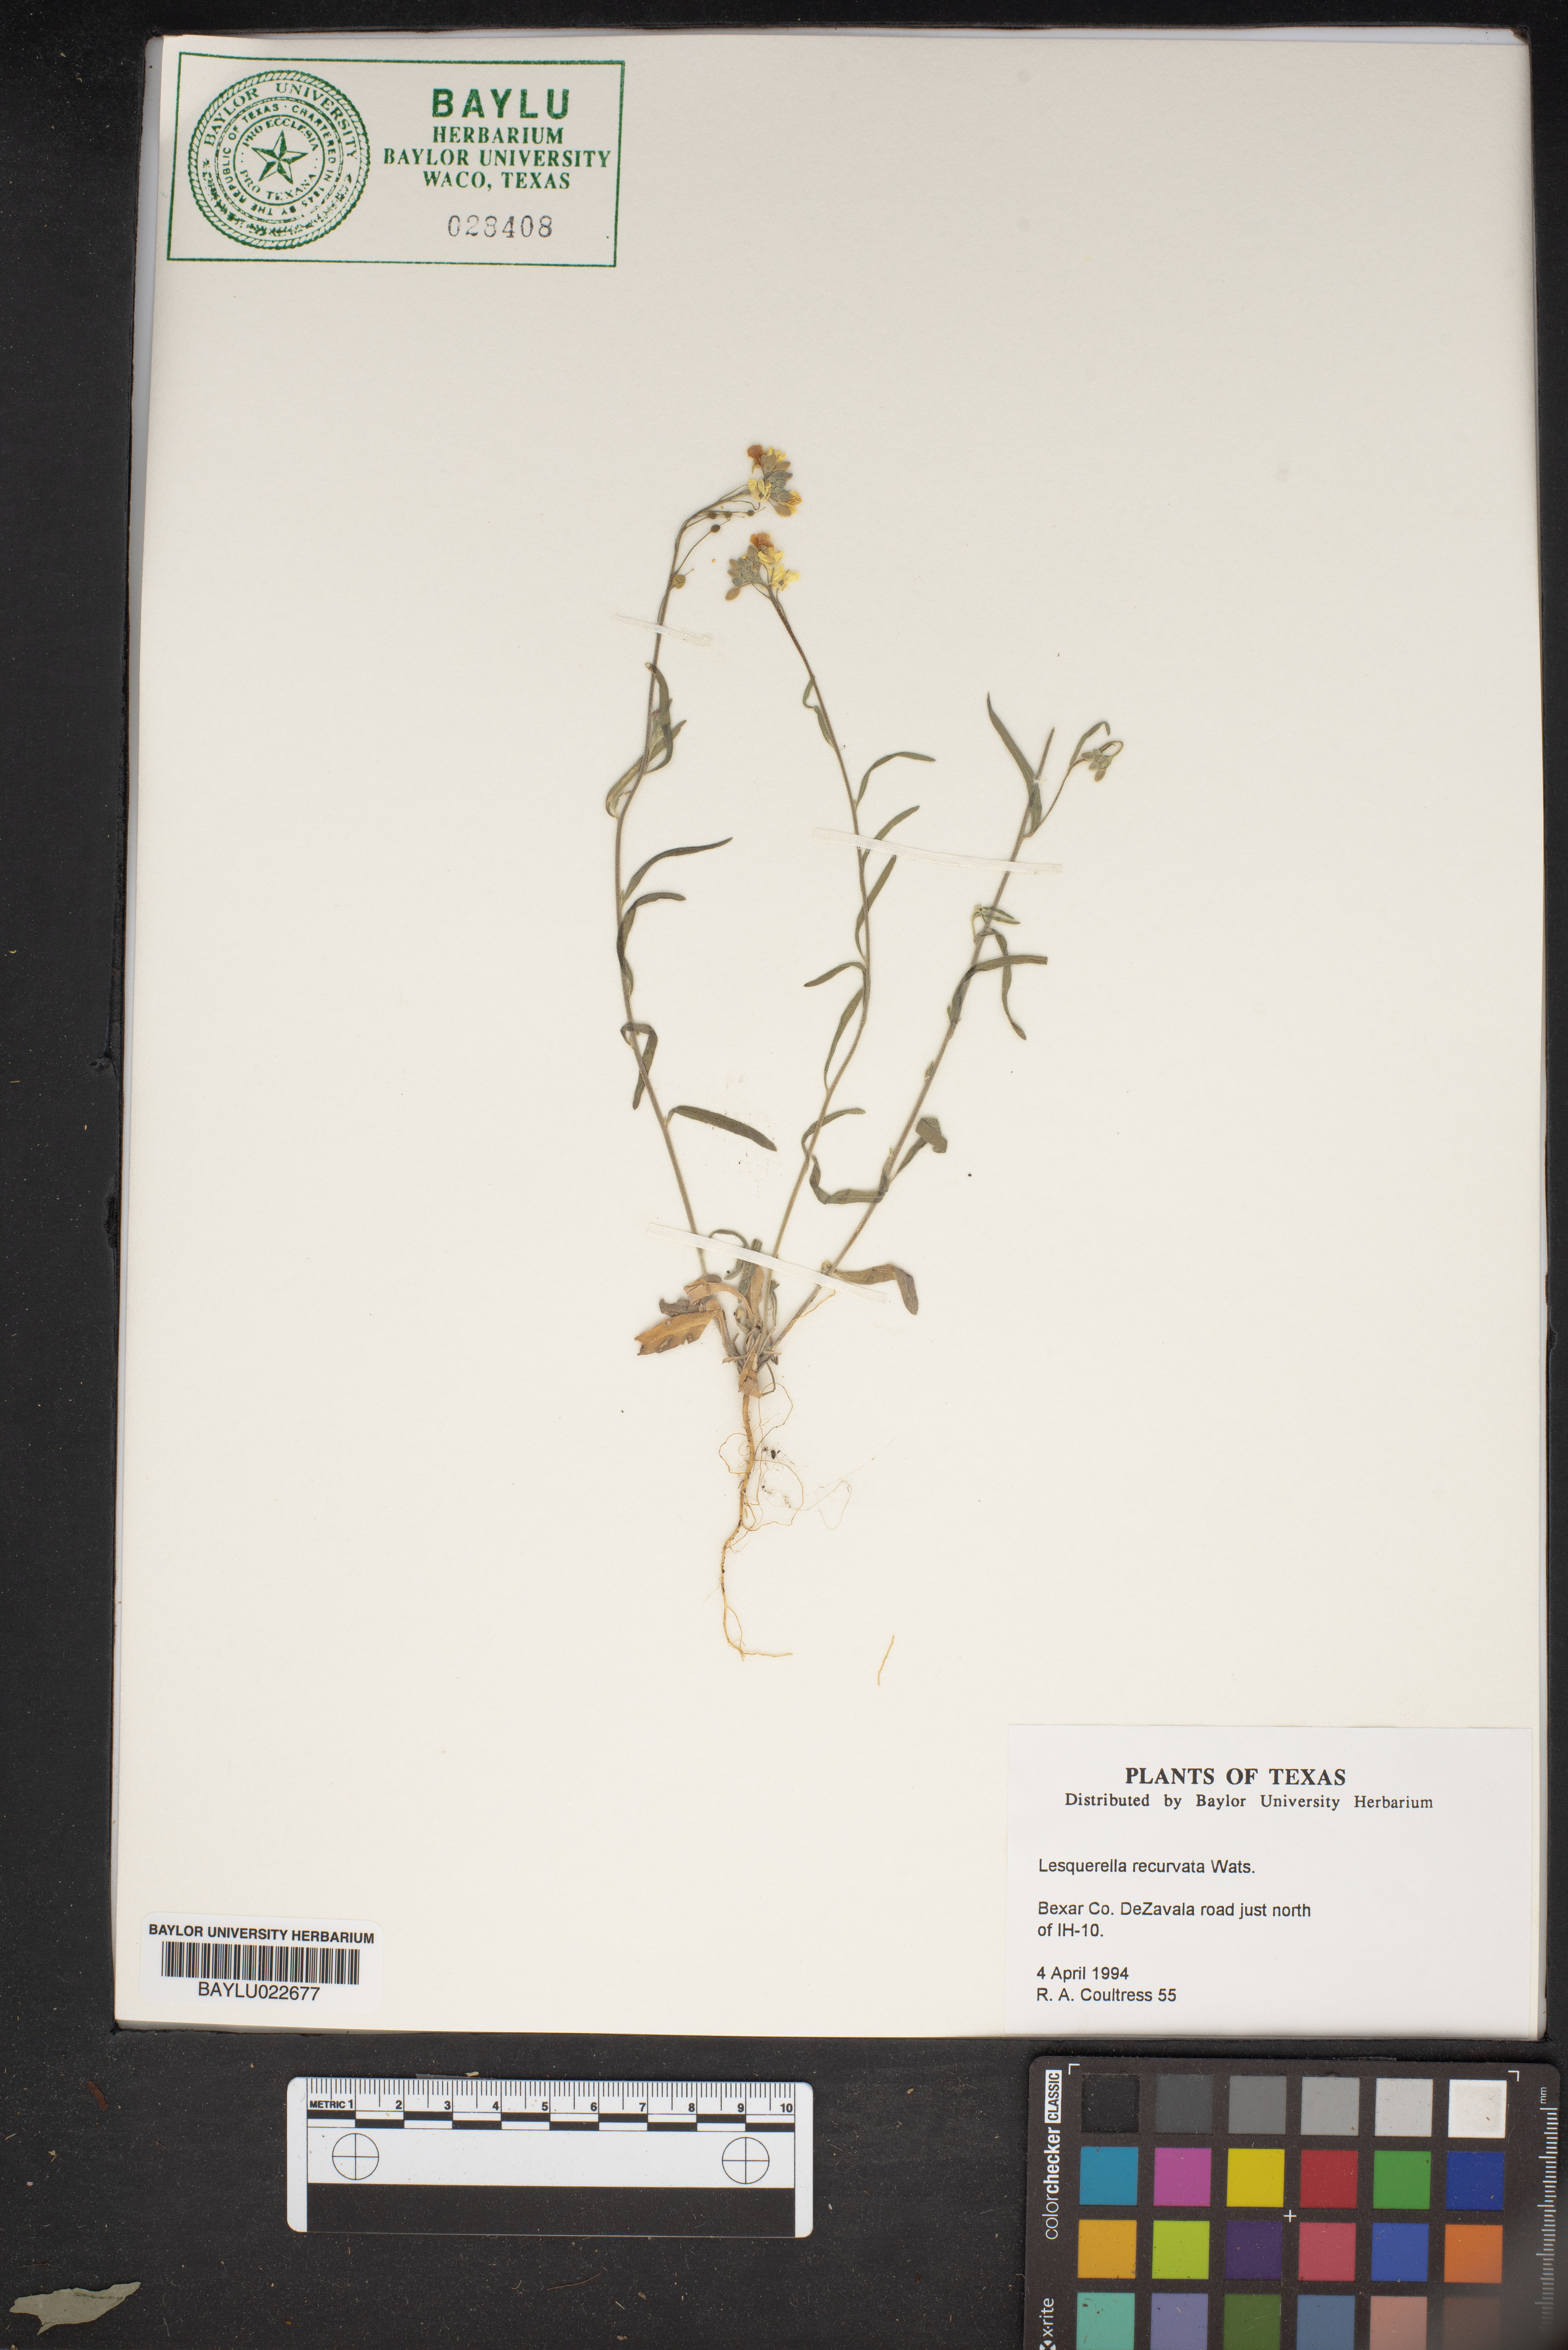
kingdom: Plantae
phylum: Tracheophyta
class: Magnoliopsida
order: Brassicales
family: Brassicaceae
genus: Physaria
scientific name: Physaria recurvata
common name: Gaslight bladderpod
